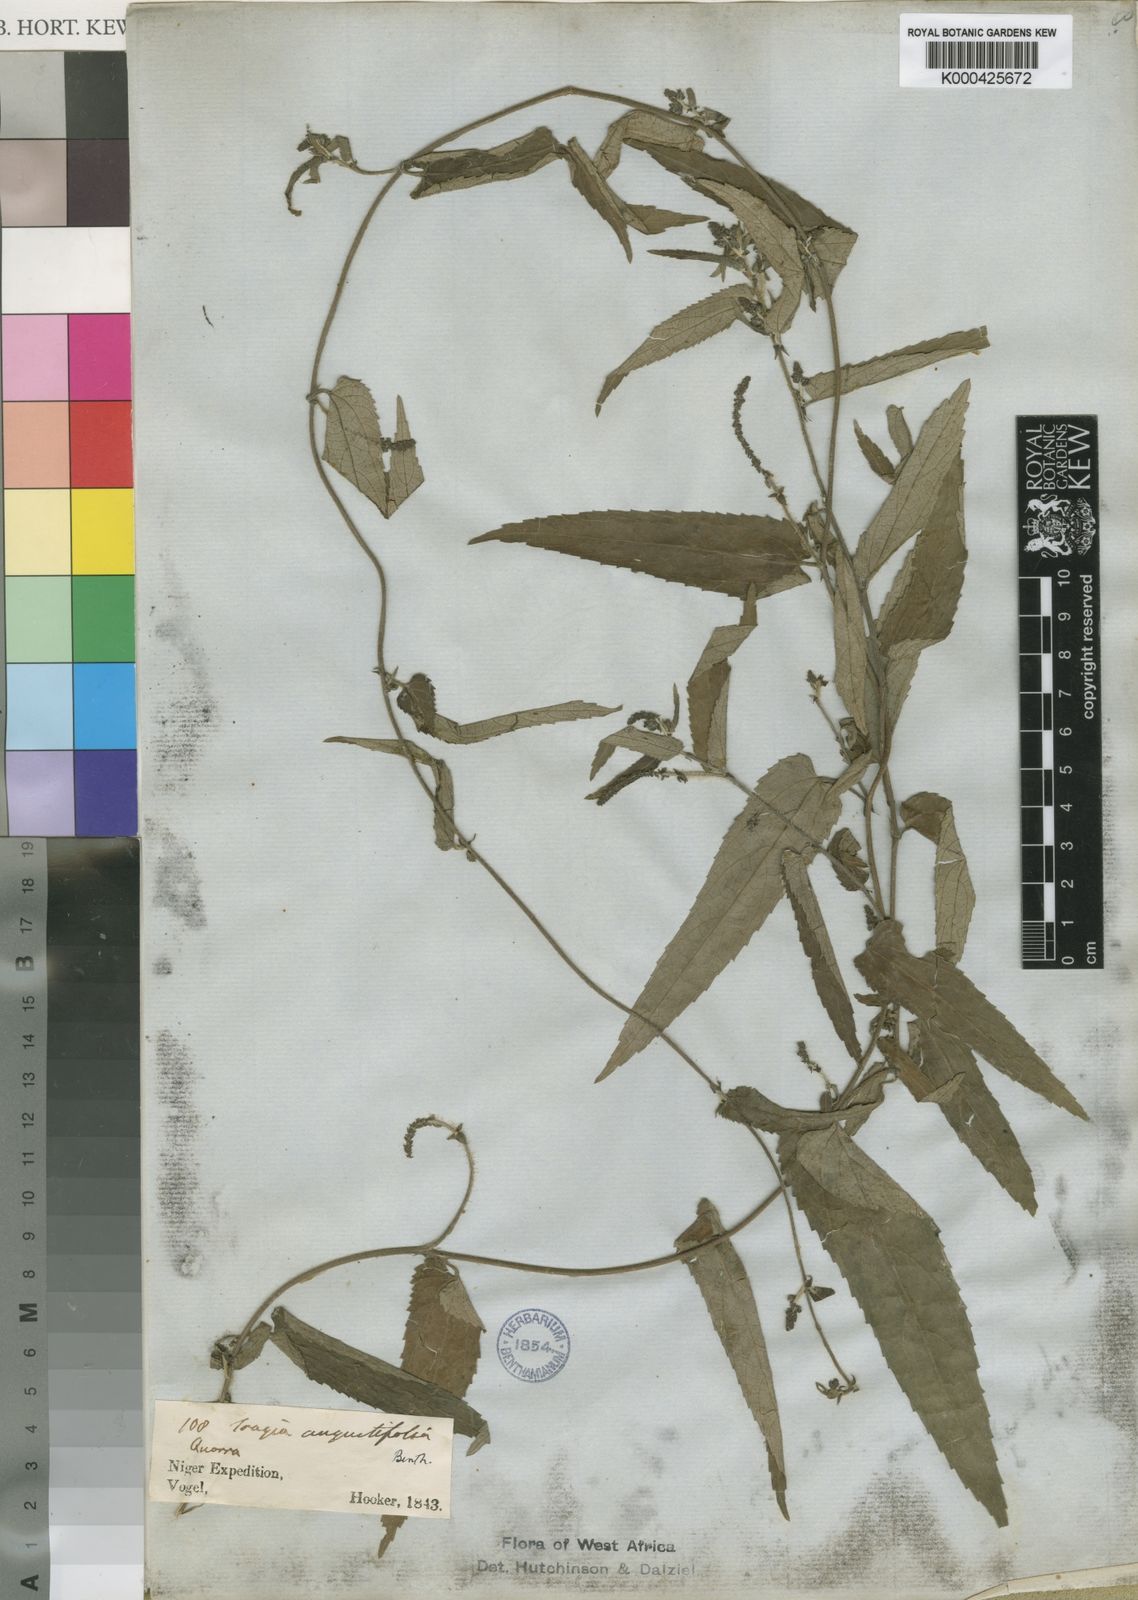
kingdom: Plantae
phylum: Tracheophyta
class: Magnoliopsida
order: Malpighiales
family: Euphorbiaceae
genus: Tragia
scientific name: Tragia vogelii
